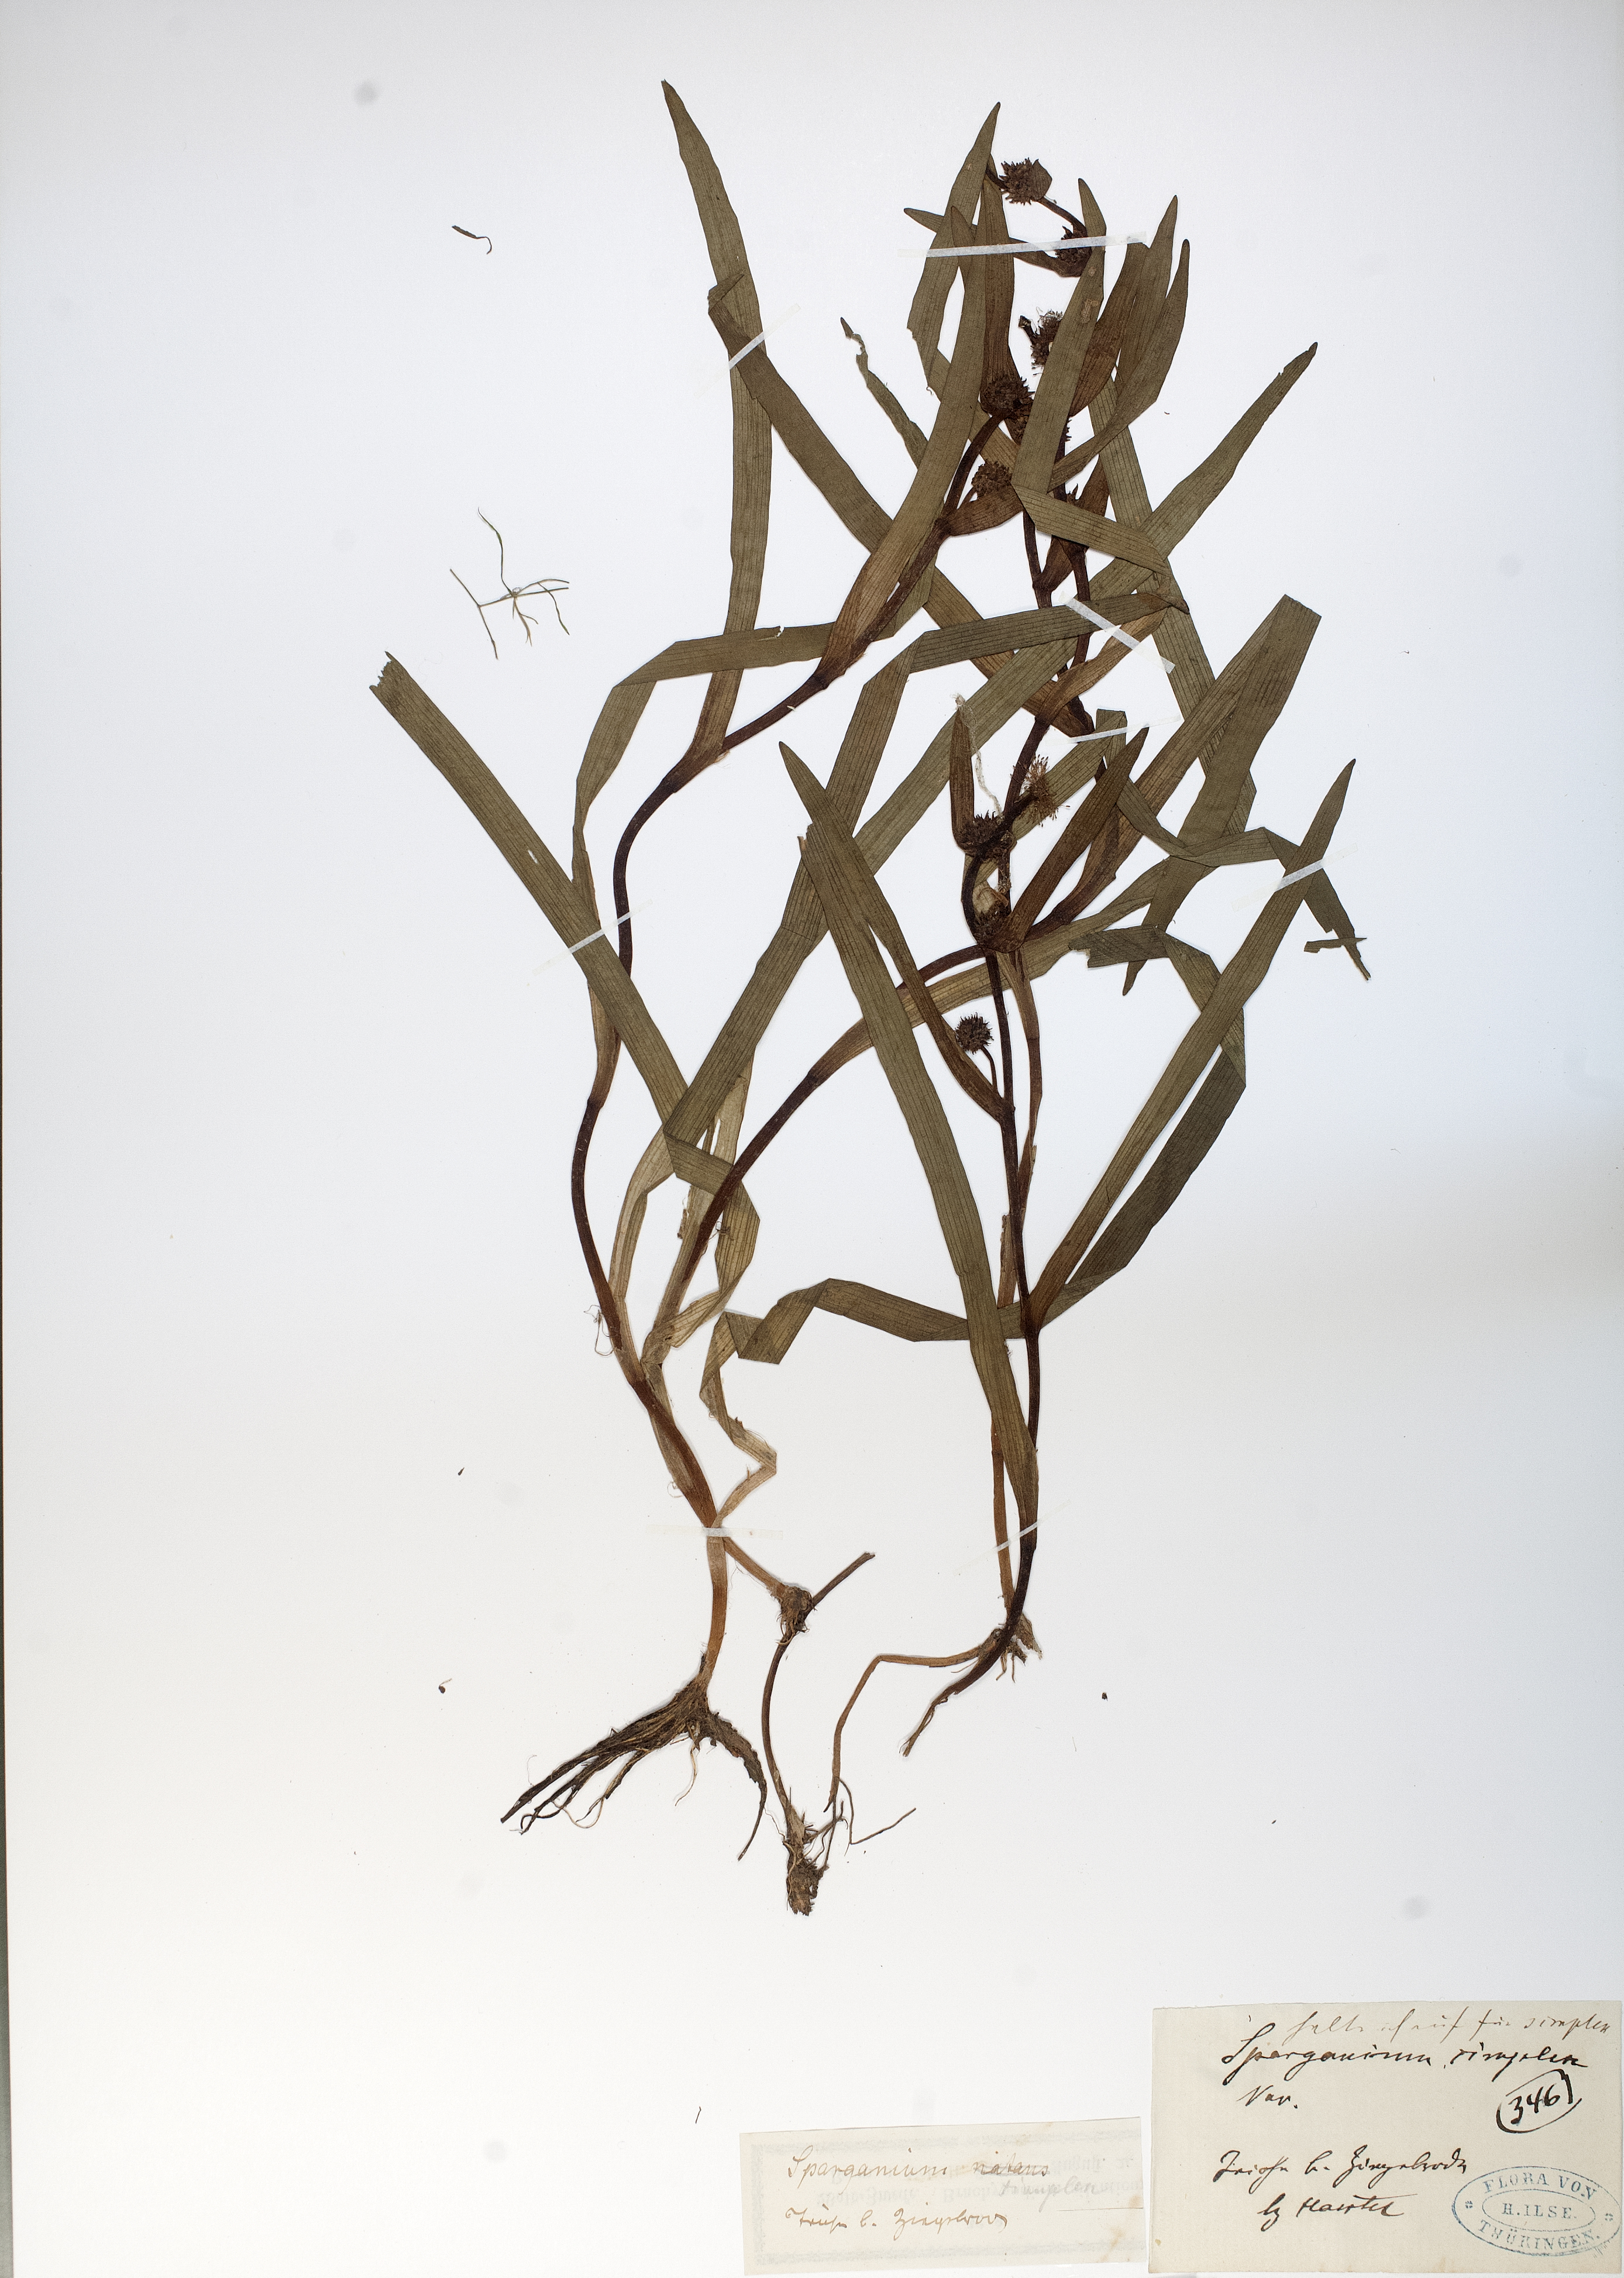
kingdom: Plantae
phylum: Tracheophyta
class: Liliopsida
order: Poales
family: Typhaceae
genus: Sparganium
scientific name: Sparganium emersum
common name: Unbranched bur-reed
